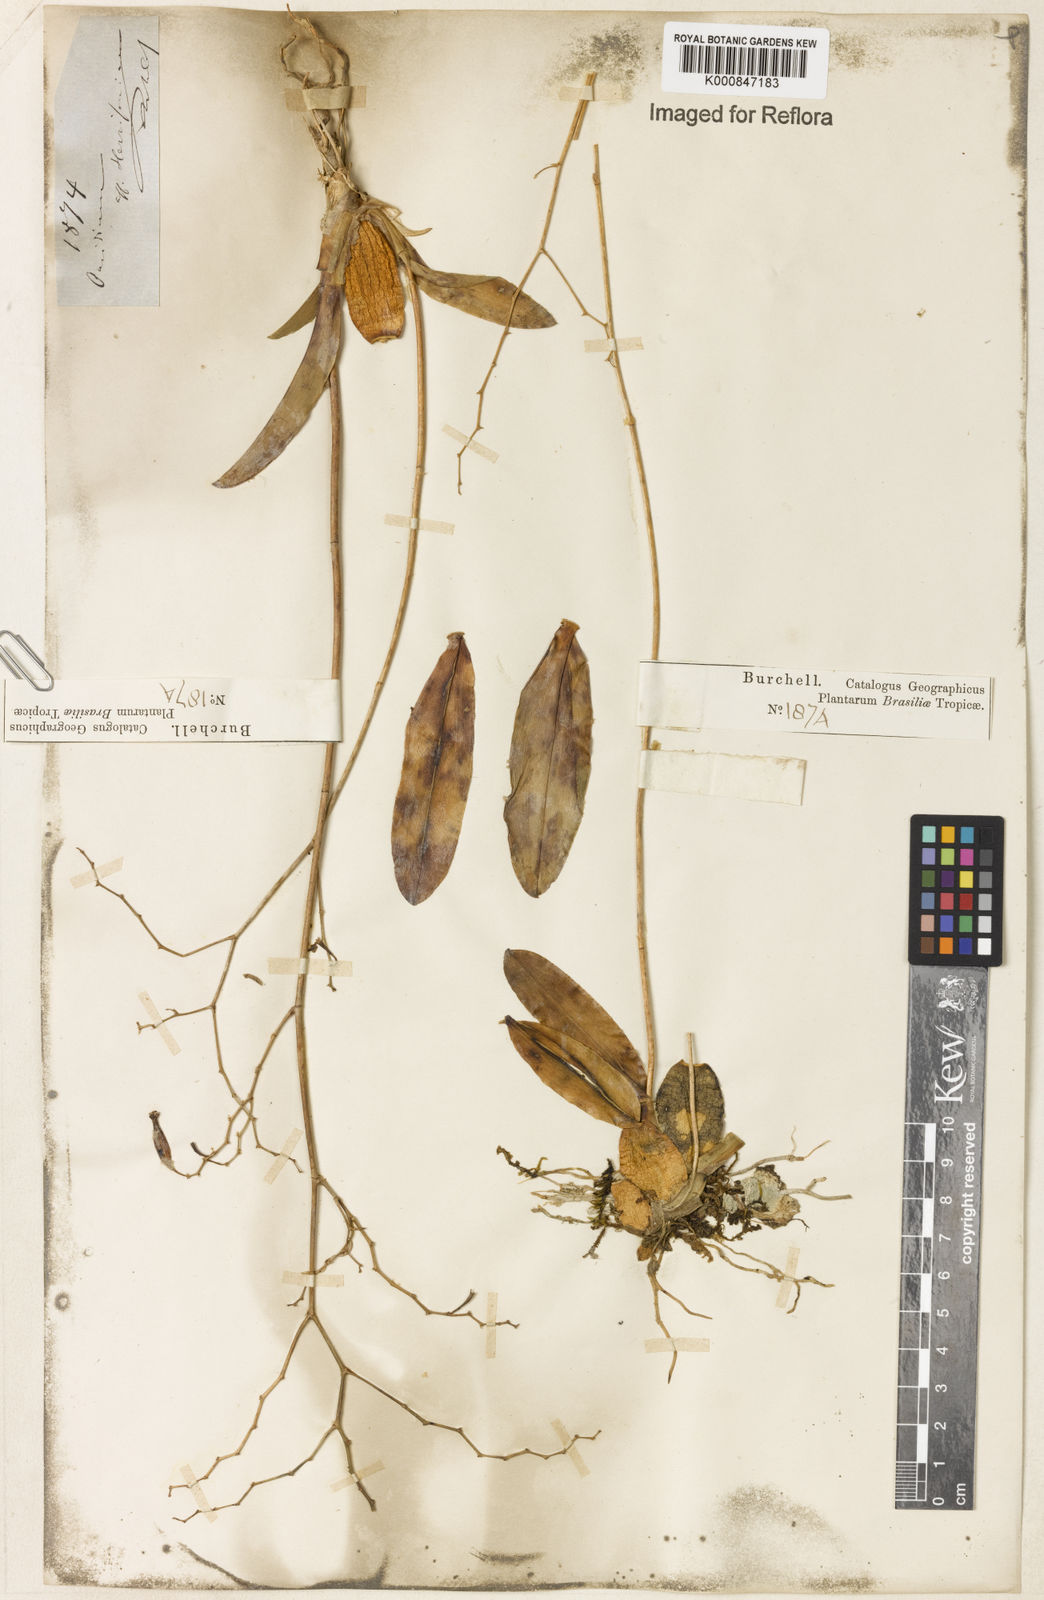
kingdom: Plantae
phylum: Tracheophyta
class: Liliopsida
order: Asparagales
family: Orchidaceae
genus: Oncidium
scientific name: Oncidium
